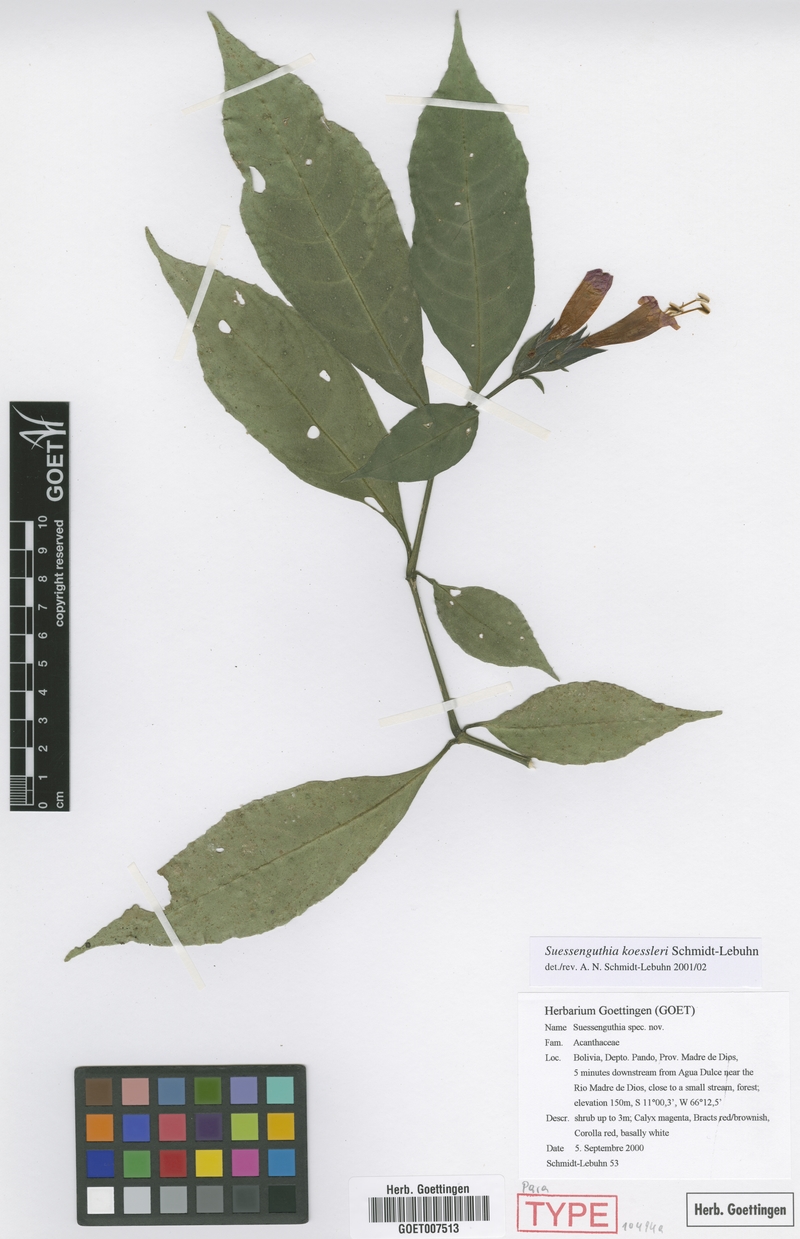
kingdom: Plantae
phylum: Tracheophyta
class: Magnoliopsida
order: Lamiales
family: Acanthaceae
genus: Suessenguthia
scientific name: Suessenguthia koessleri
